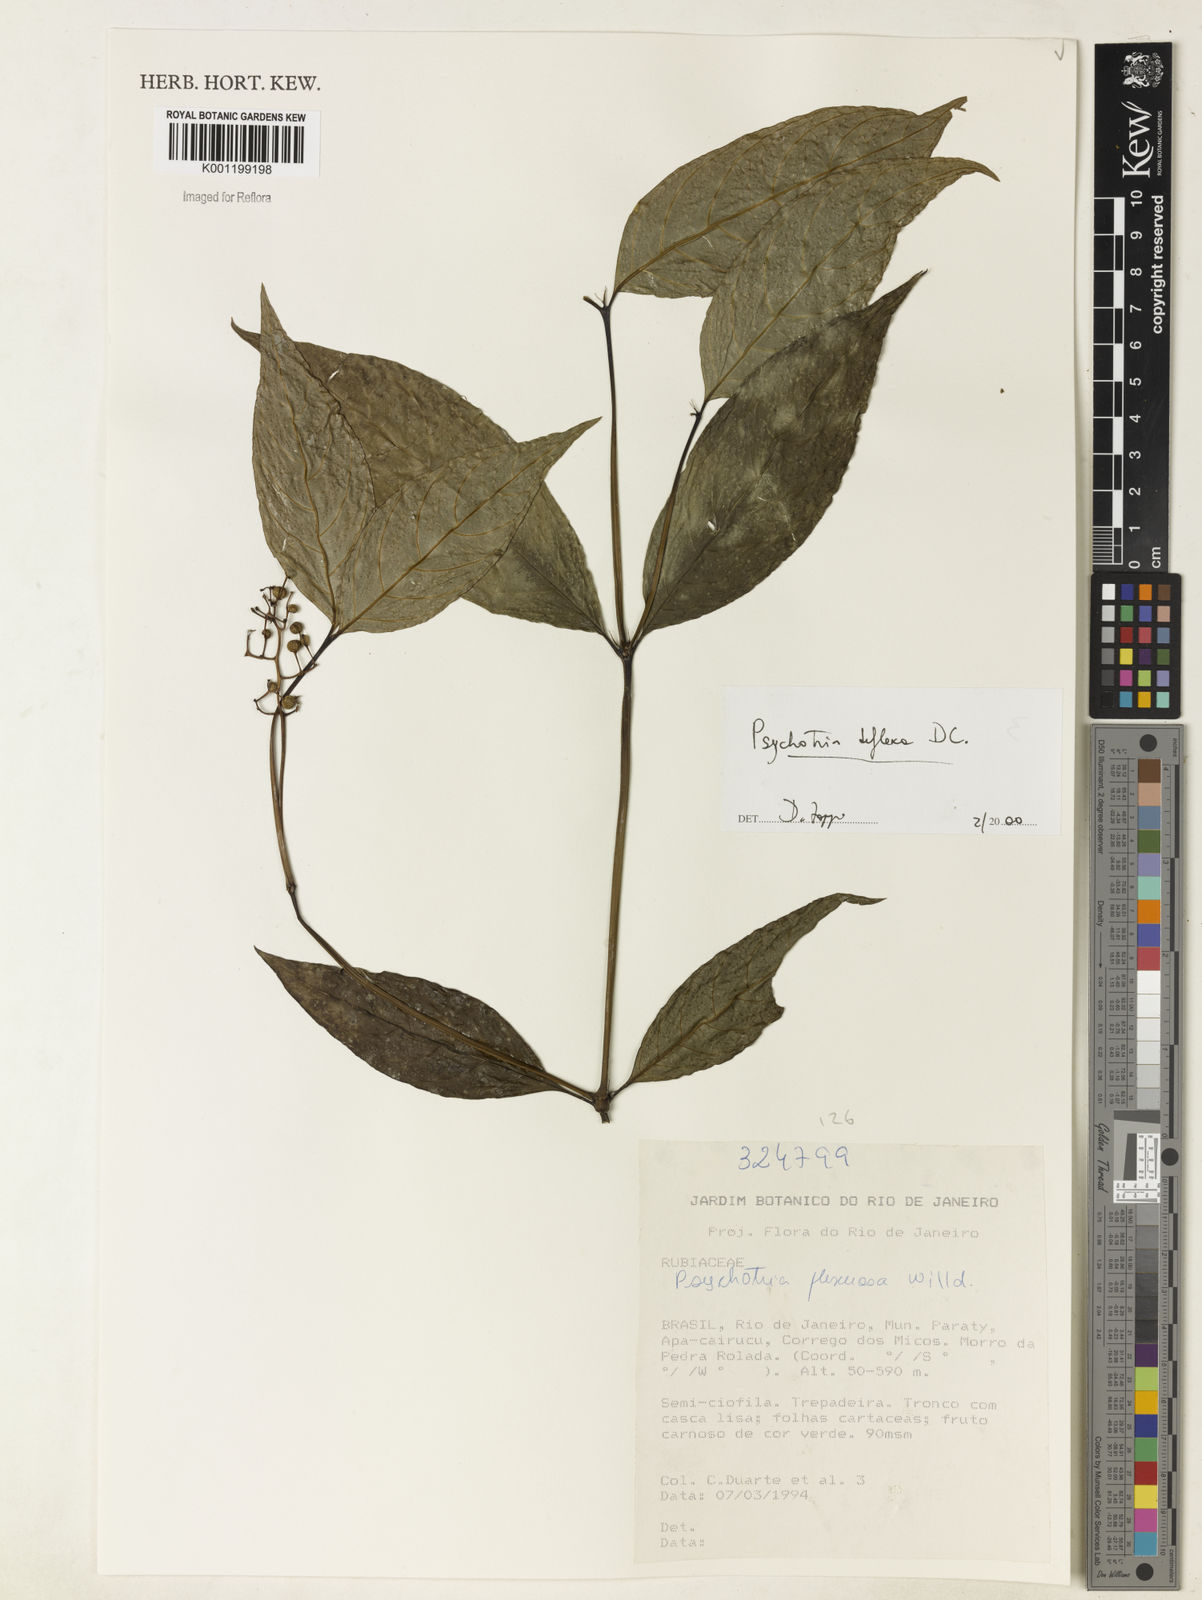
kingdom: Plantae
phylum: Tracheophyta
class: Magnoliopsida
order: Gentianales
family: Rubiaceae
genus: Palicourea
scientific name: Palicourea deflexa
